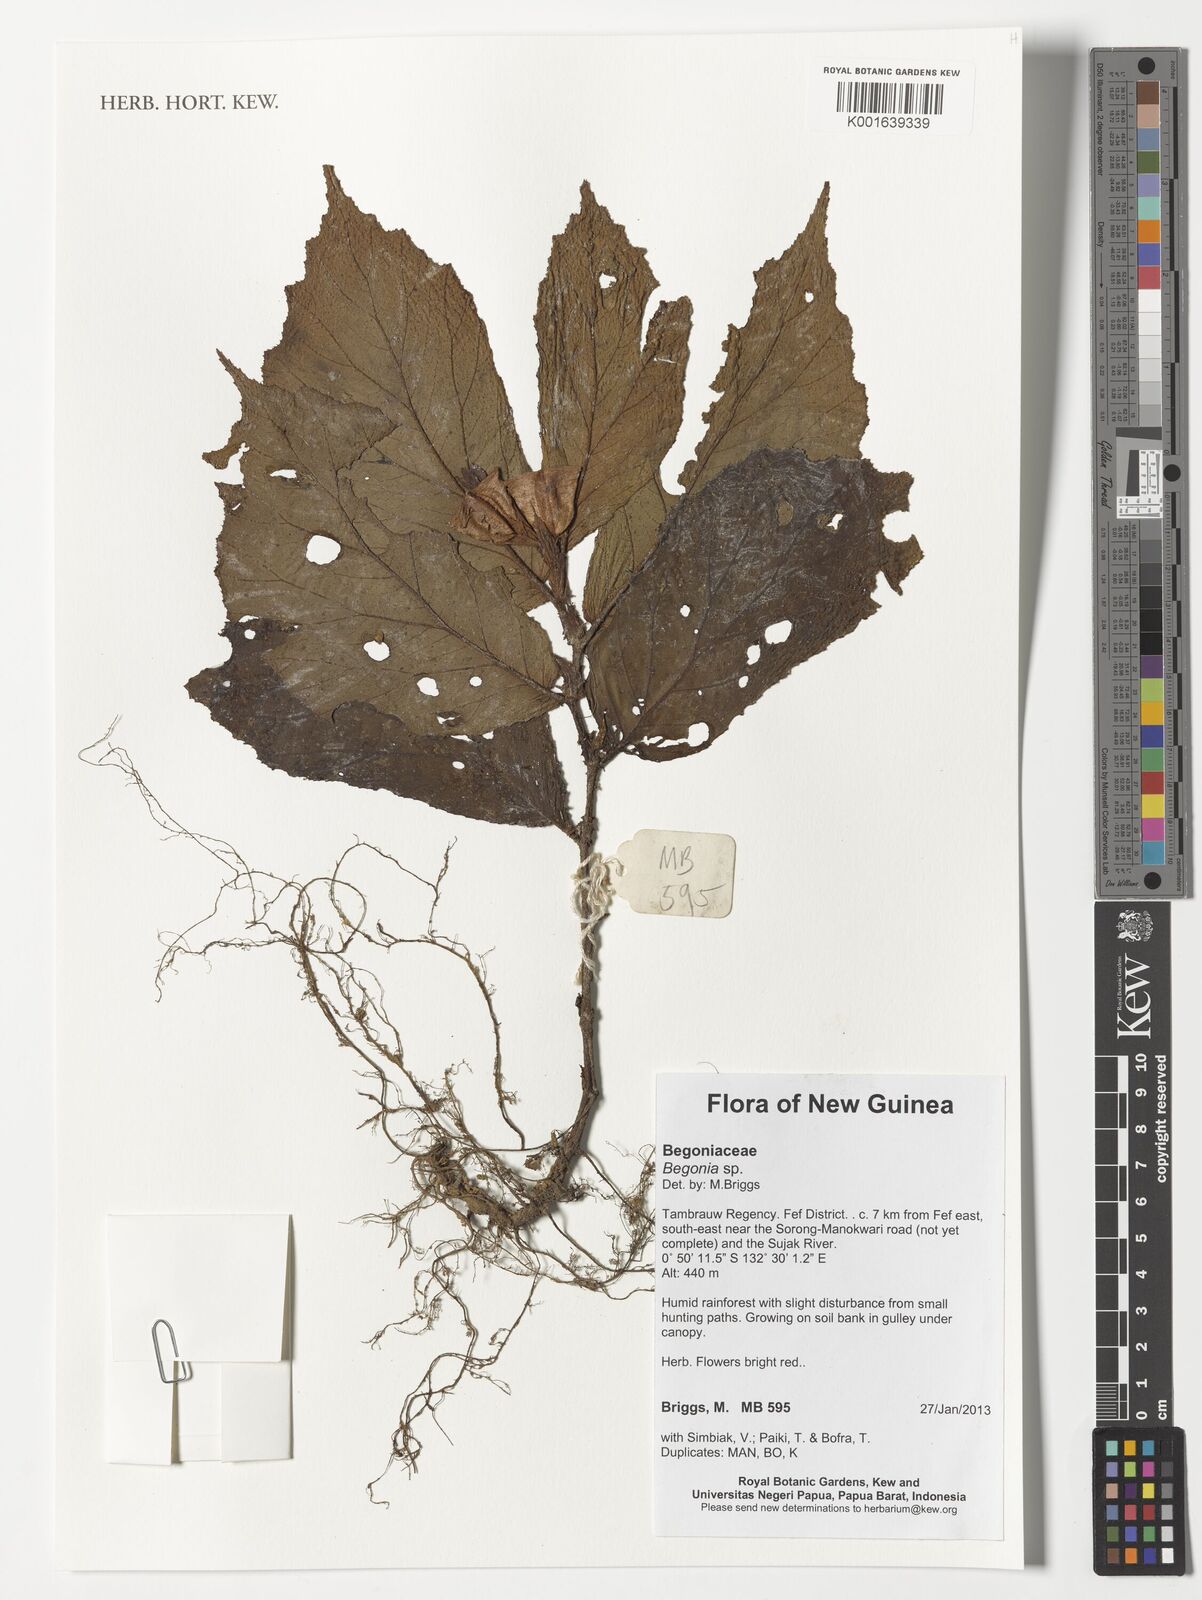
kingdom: Plantae
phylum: Tracheophyta
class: Magnoliopsida
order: Cucurbitales
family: Begoniaceae
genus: Begonia
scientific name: Begonia
